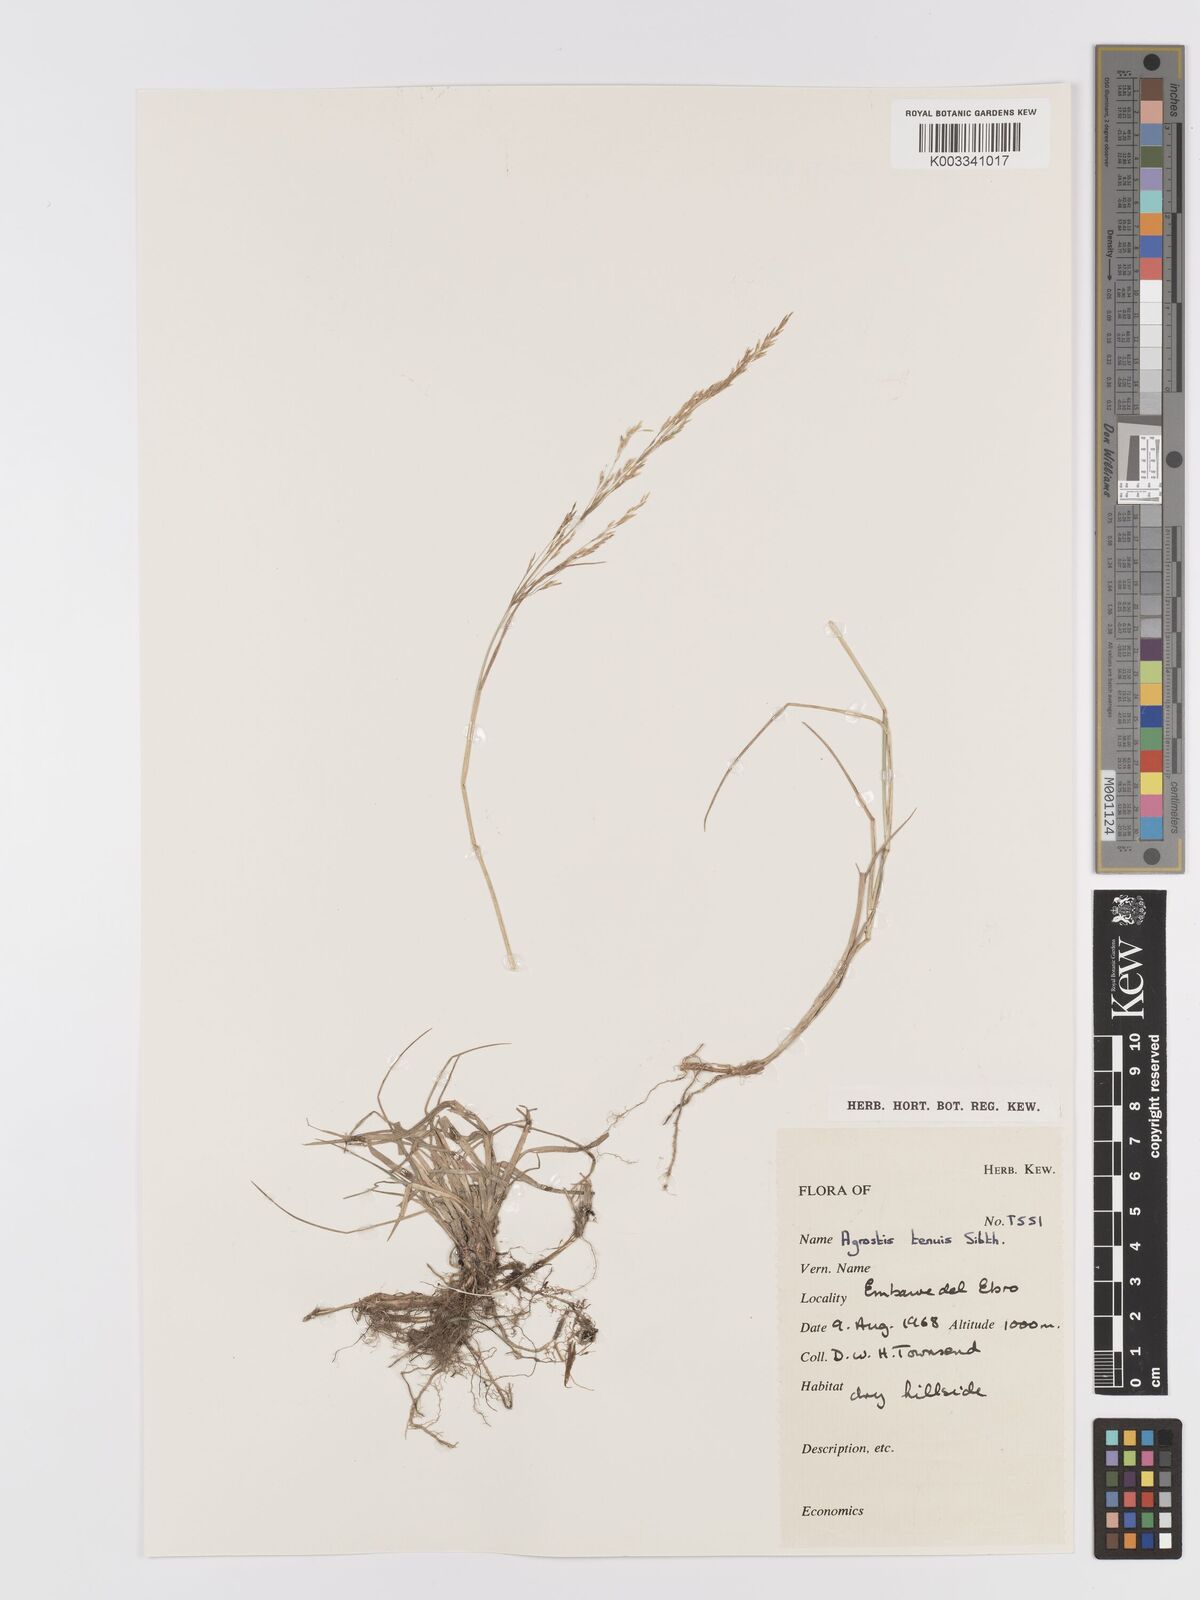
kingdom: Plantae
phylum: Tracheophyta
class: Liliopsida
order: Poales
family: Poaceae
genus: Agrostis
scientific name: Agrostis capillaris
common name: Colonial bentgrass
